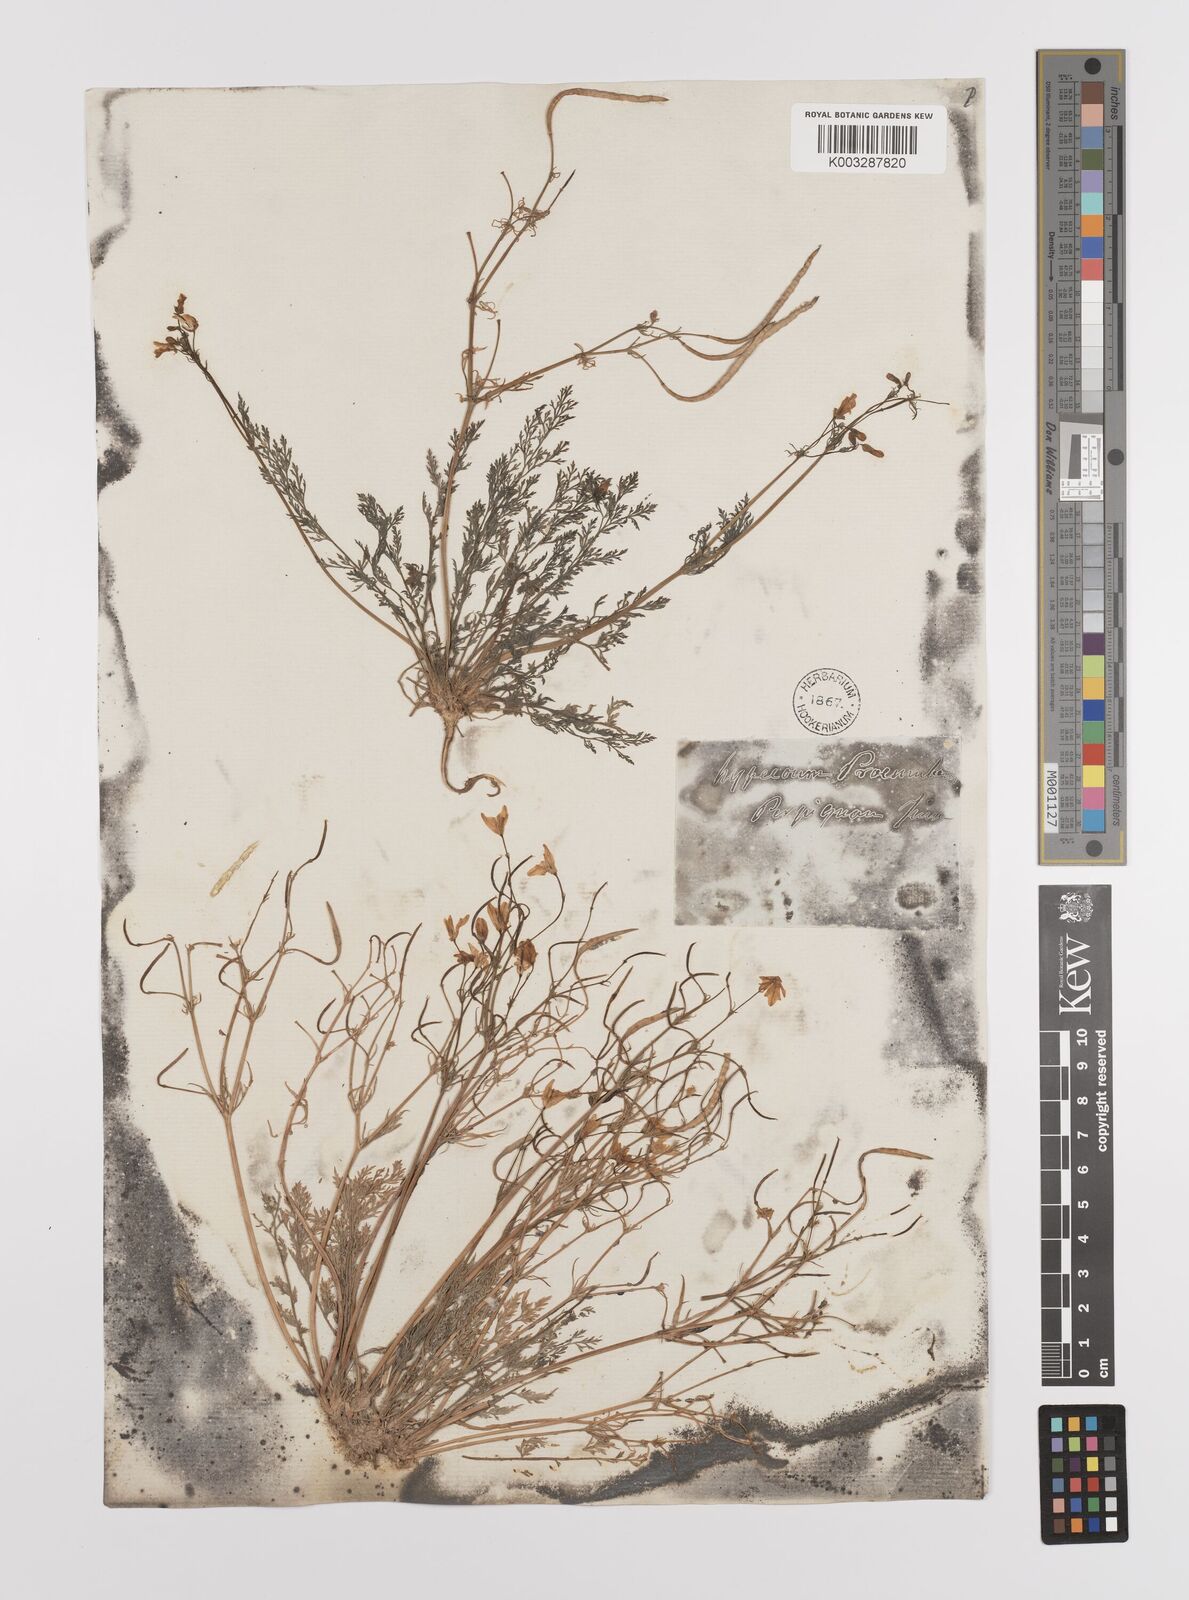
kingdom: Plantae
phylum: Tracheophyta
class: Magnoliopsida
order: Ranunculales
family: Papaveraceae
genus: Hypecoum
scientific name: Hypecoum imberbe
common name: Sicklefruit hypecoum
